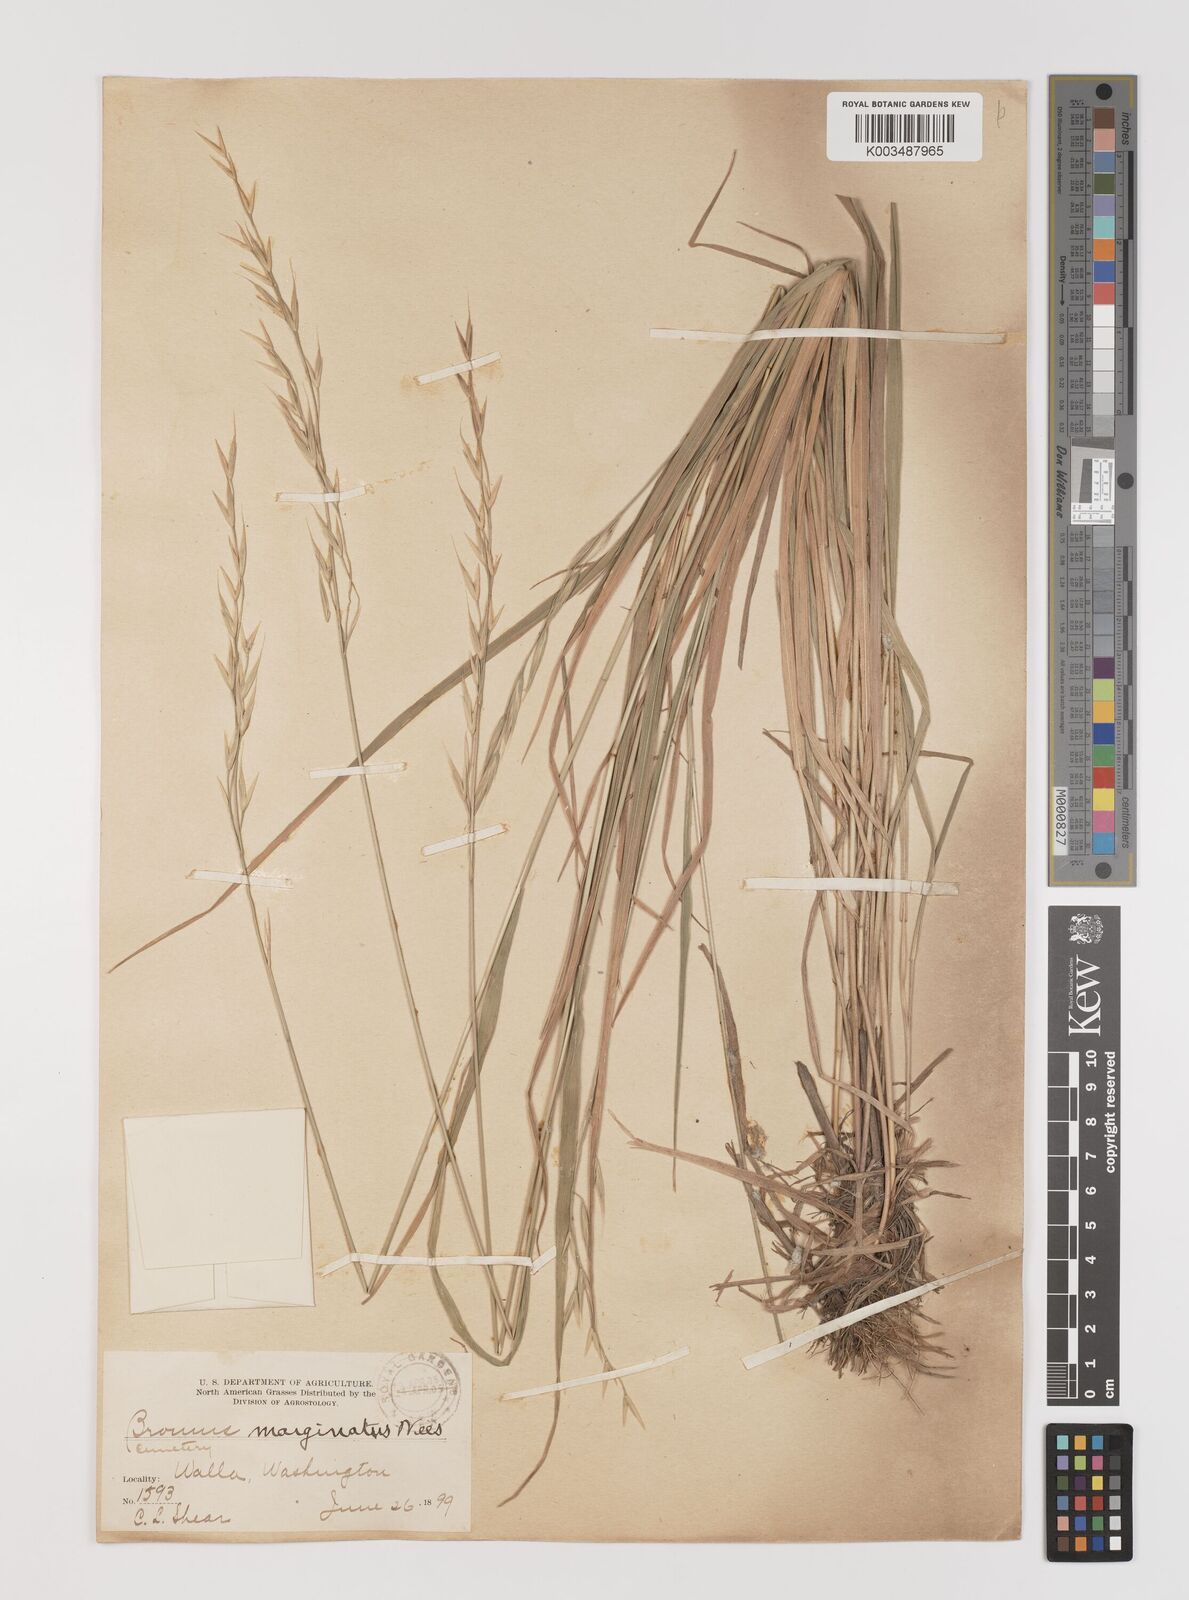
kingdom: Plantae
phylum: Tracheophyta
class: Liliopsida
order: Poales
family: Poaceae
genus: Bromus
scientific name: Bromus marginatus
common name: Western brome
